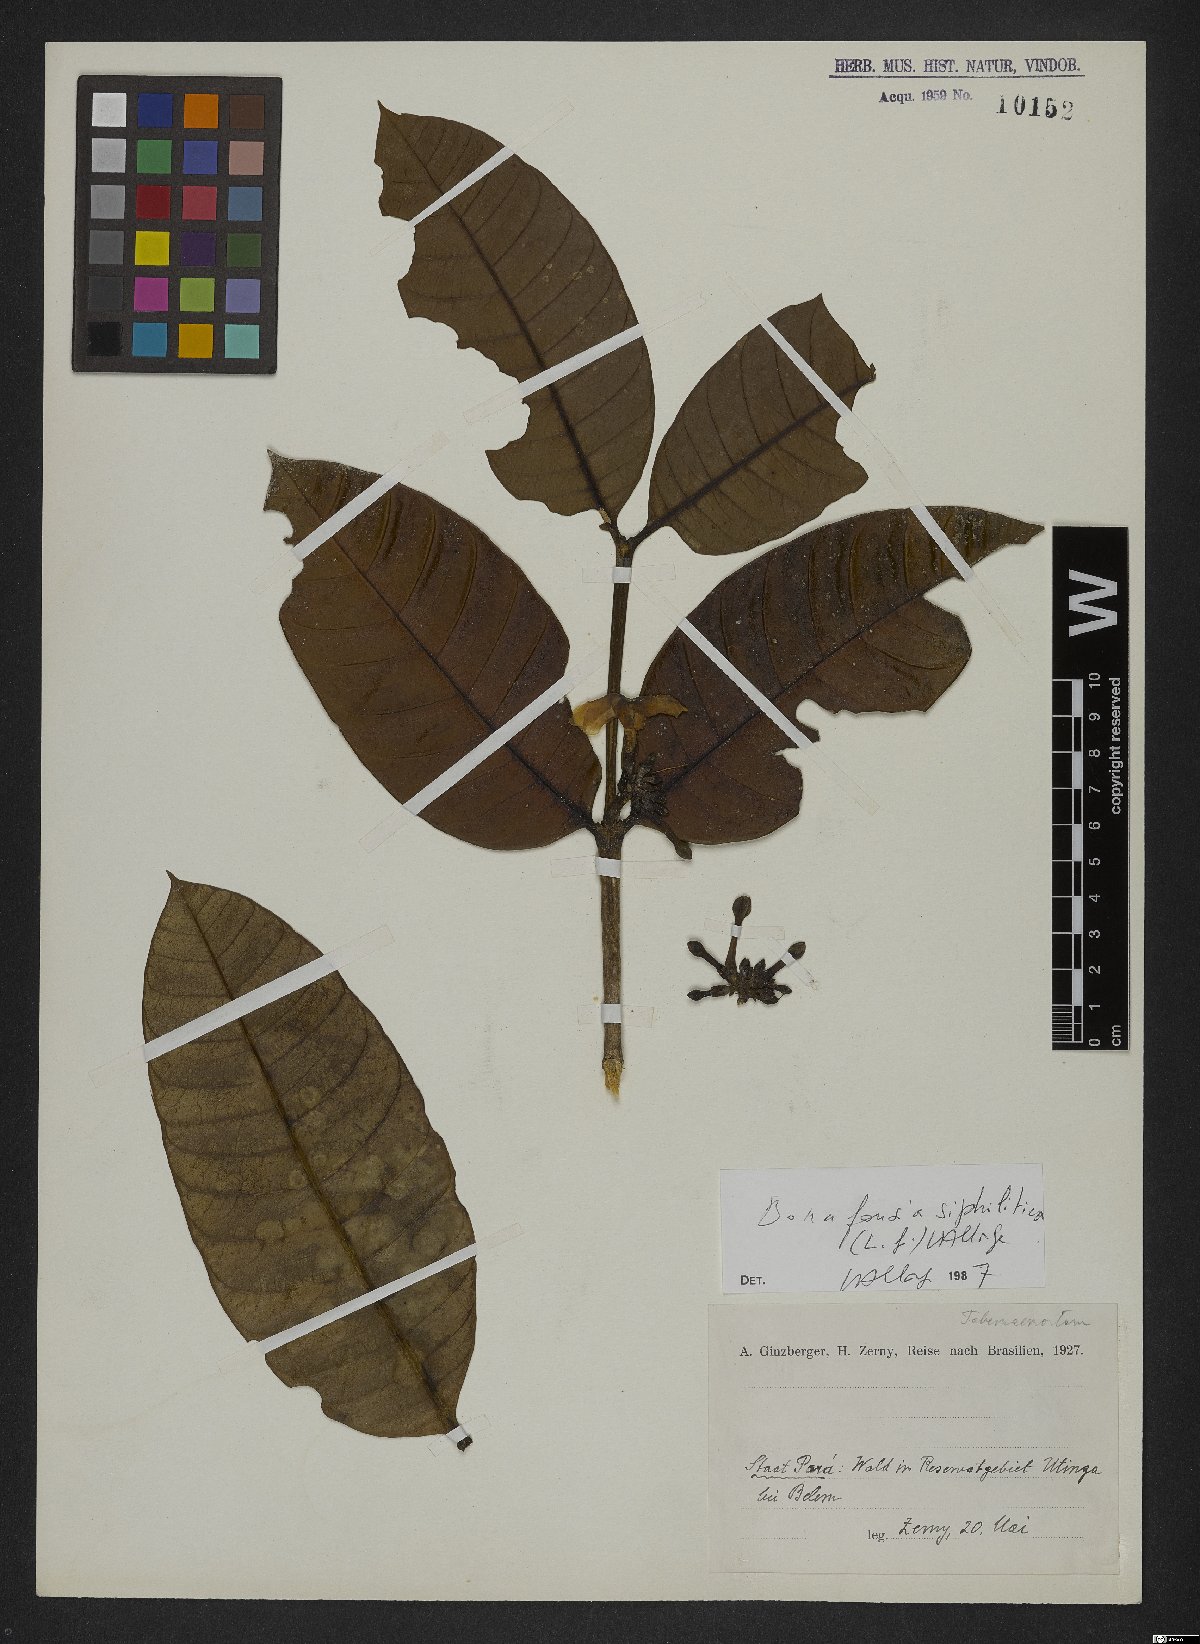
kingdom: Plantae
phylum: Tracheophyta
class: Magnoliopsida
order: Gentianales
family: Apocynaceae
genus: Tabernaemontana
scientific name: Tabernaemontana siphilitica
